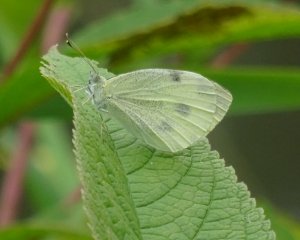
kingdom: Animalia
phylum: Arthropoda
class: Insecta
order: Lepidoptera
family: Pieridae
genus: Pieris
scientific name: Pieris rapae
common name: Cabbage White
